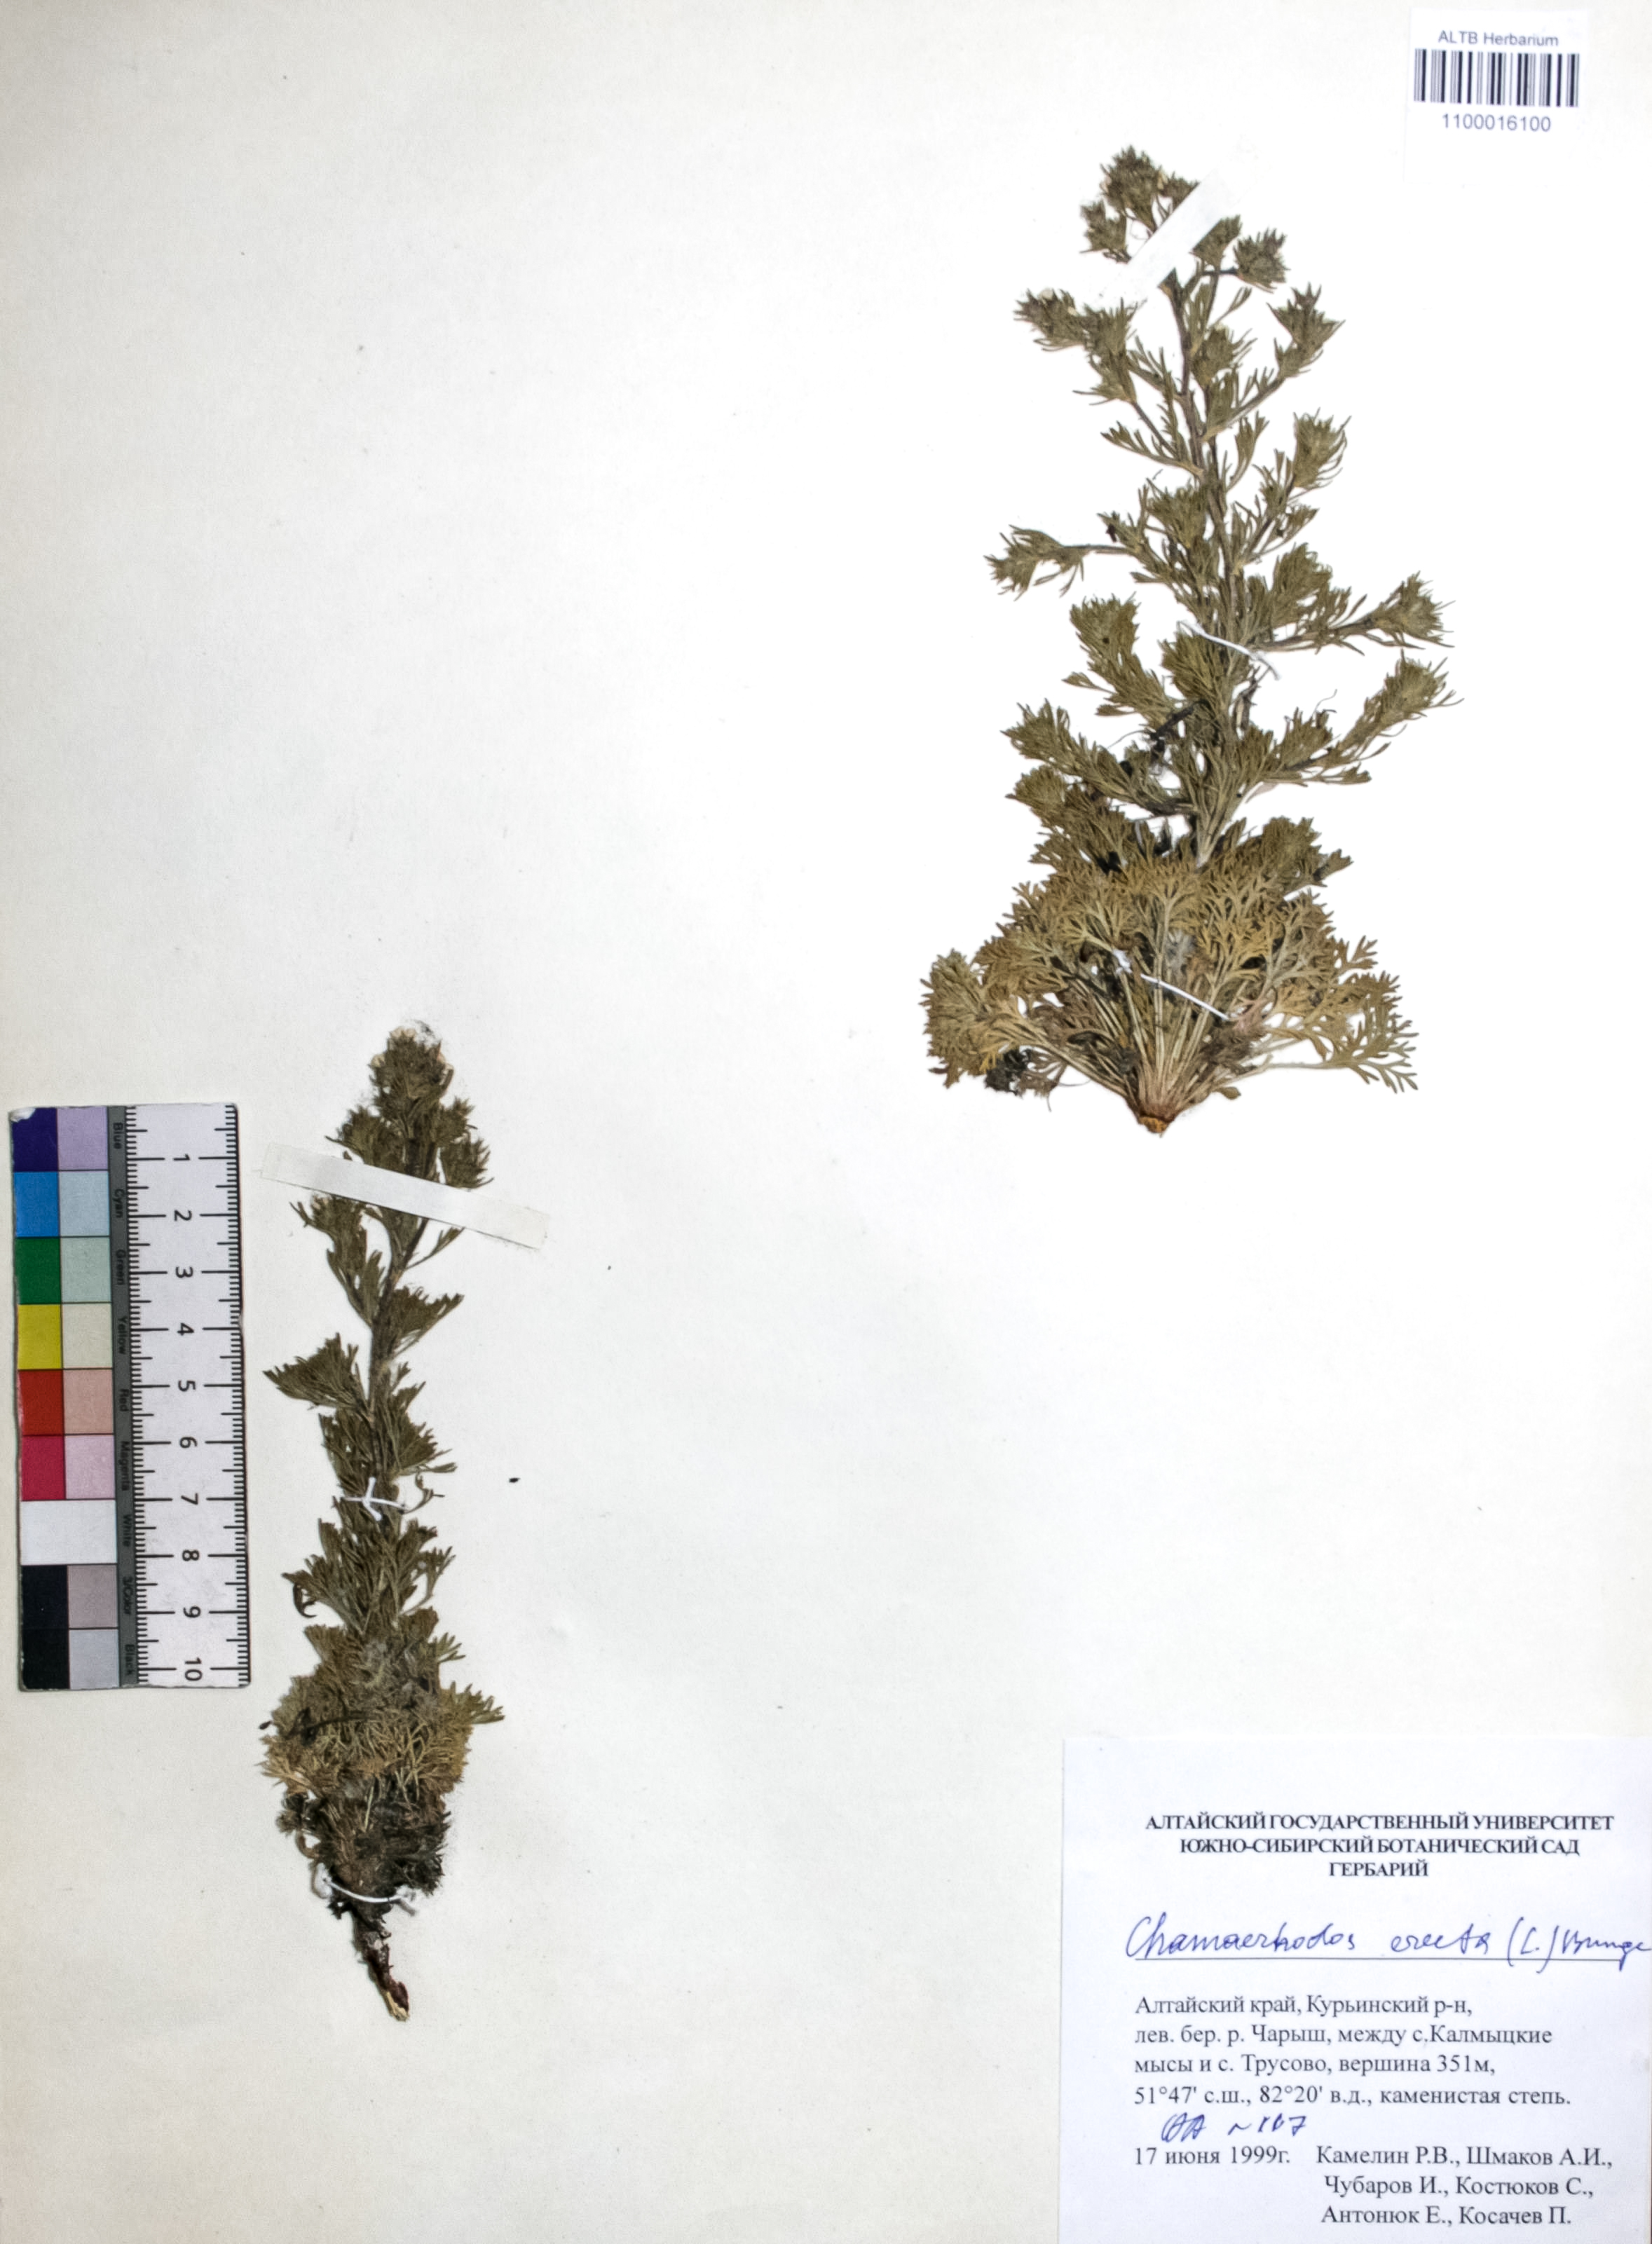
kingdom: Plantae
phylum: Tracheophyta
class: Magnoliopsida
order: Rosales
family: Rosaceae
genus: Chamaerhodos
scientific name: Chamaerhodos erecta
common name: American chamaerhodos
